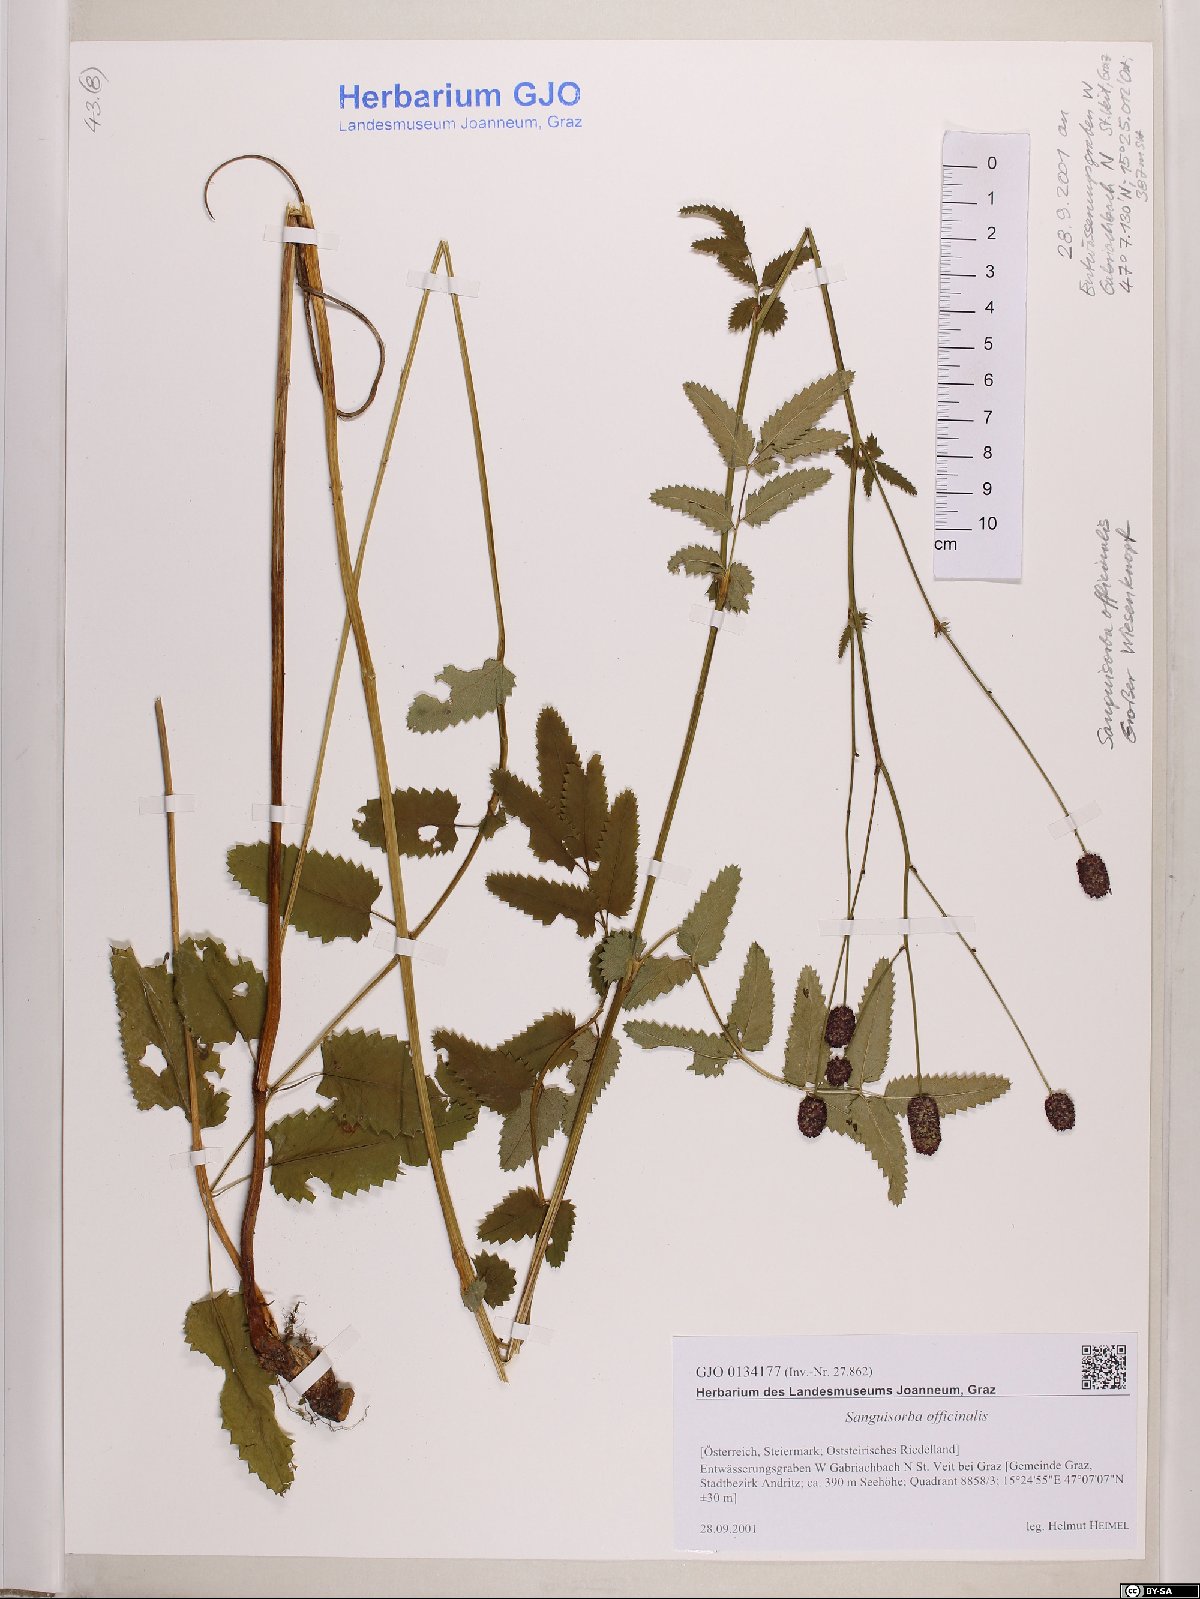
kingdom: Plantae
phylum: Tracheophyta
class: Magnoliopsida
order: Rosales
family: Rosaceae
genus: Sanguisorba
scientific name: Sanguisorba officinalis
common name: Great burnet
